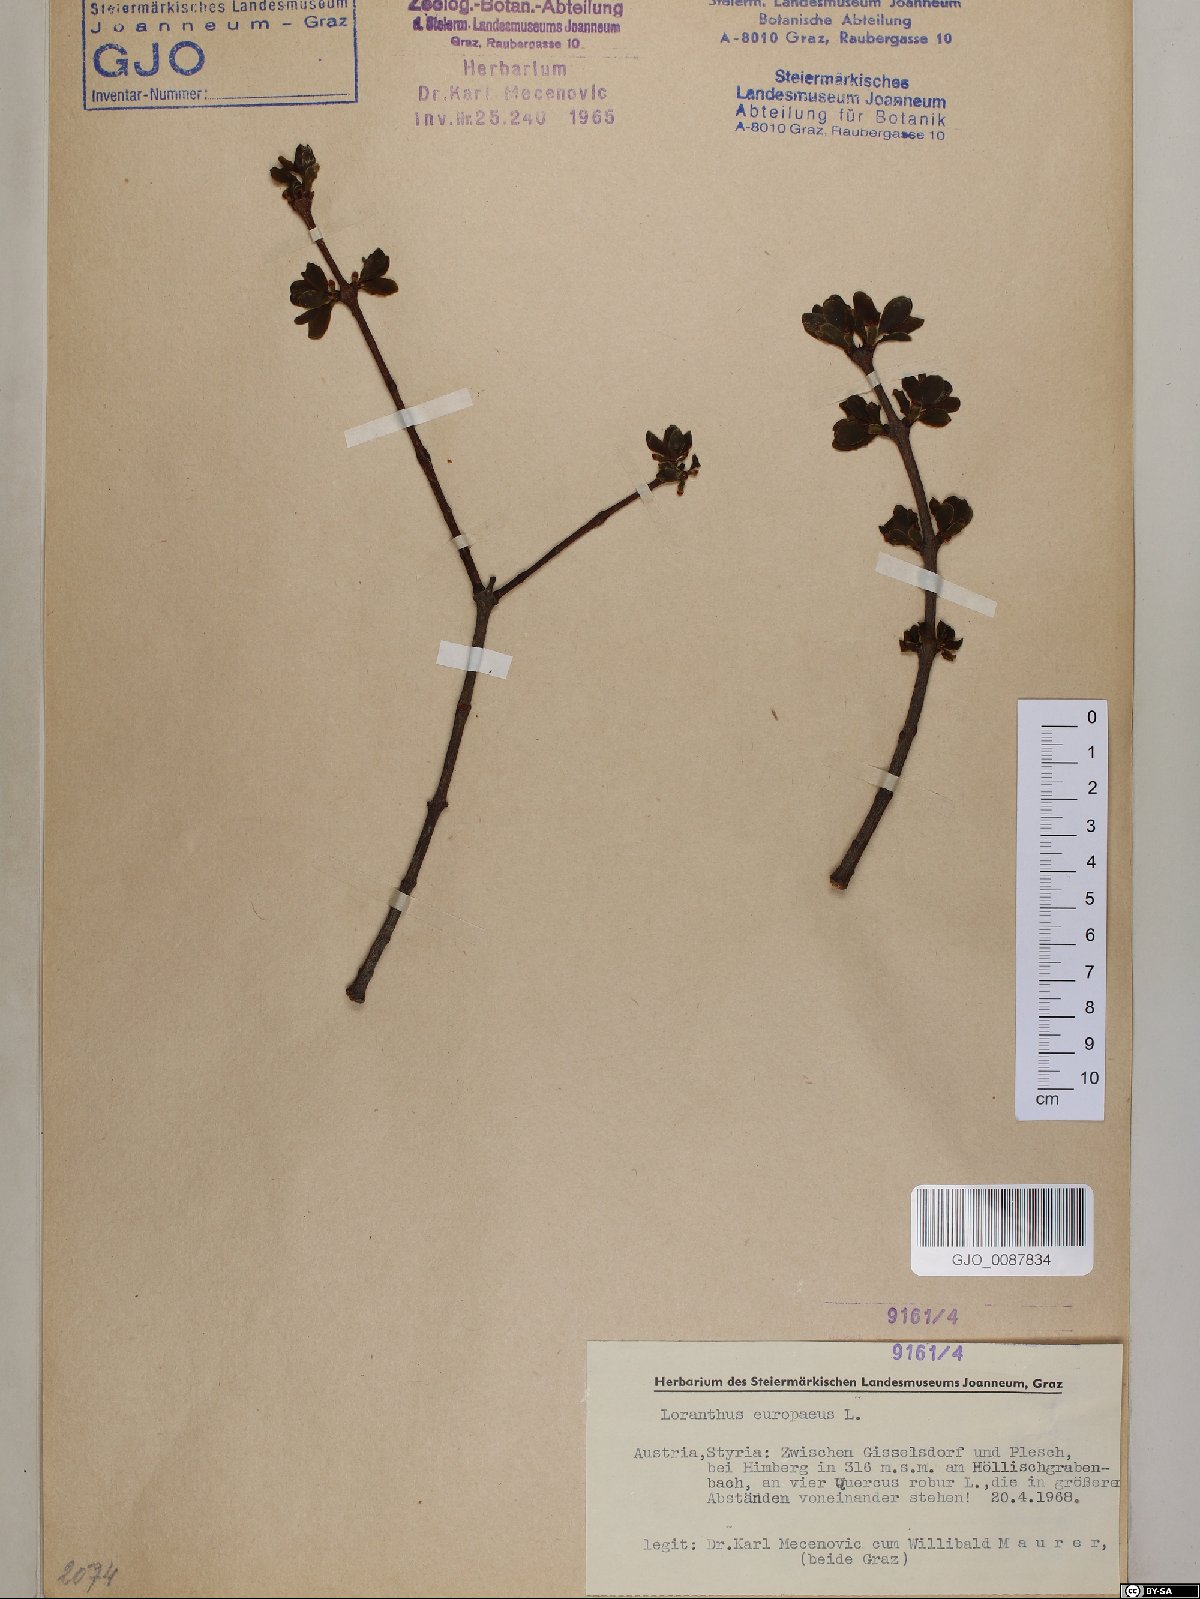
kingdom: Plantae
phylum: Tracheophyta
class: Magnoliopsida
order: Santalales
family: Loranthaceae
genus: Loranthus
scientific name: Loranthus europaeus
